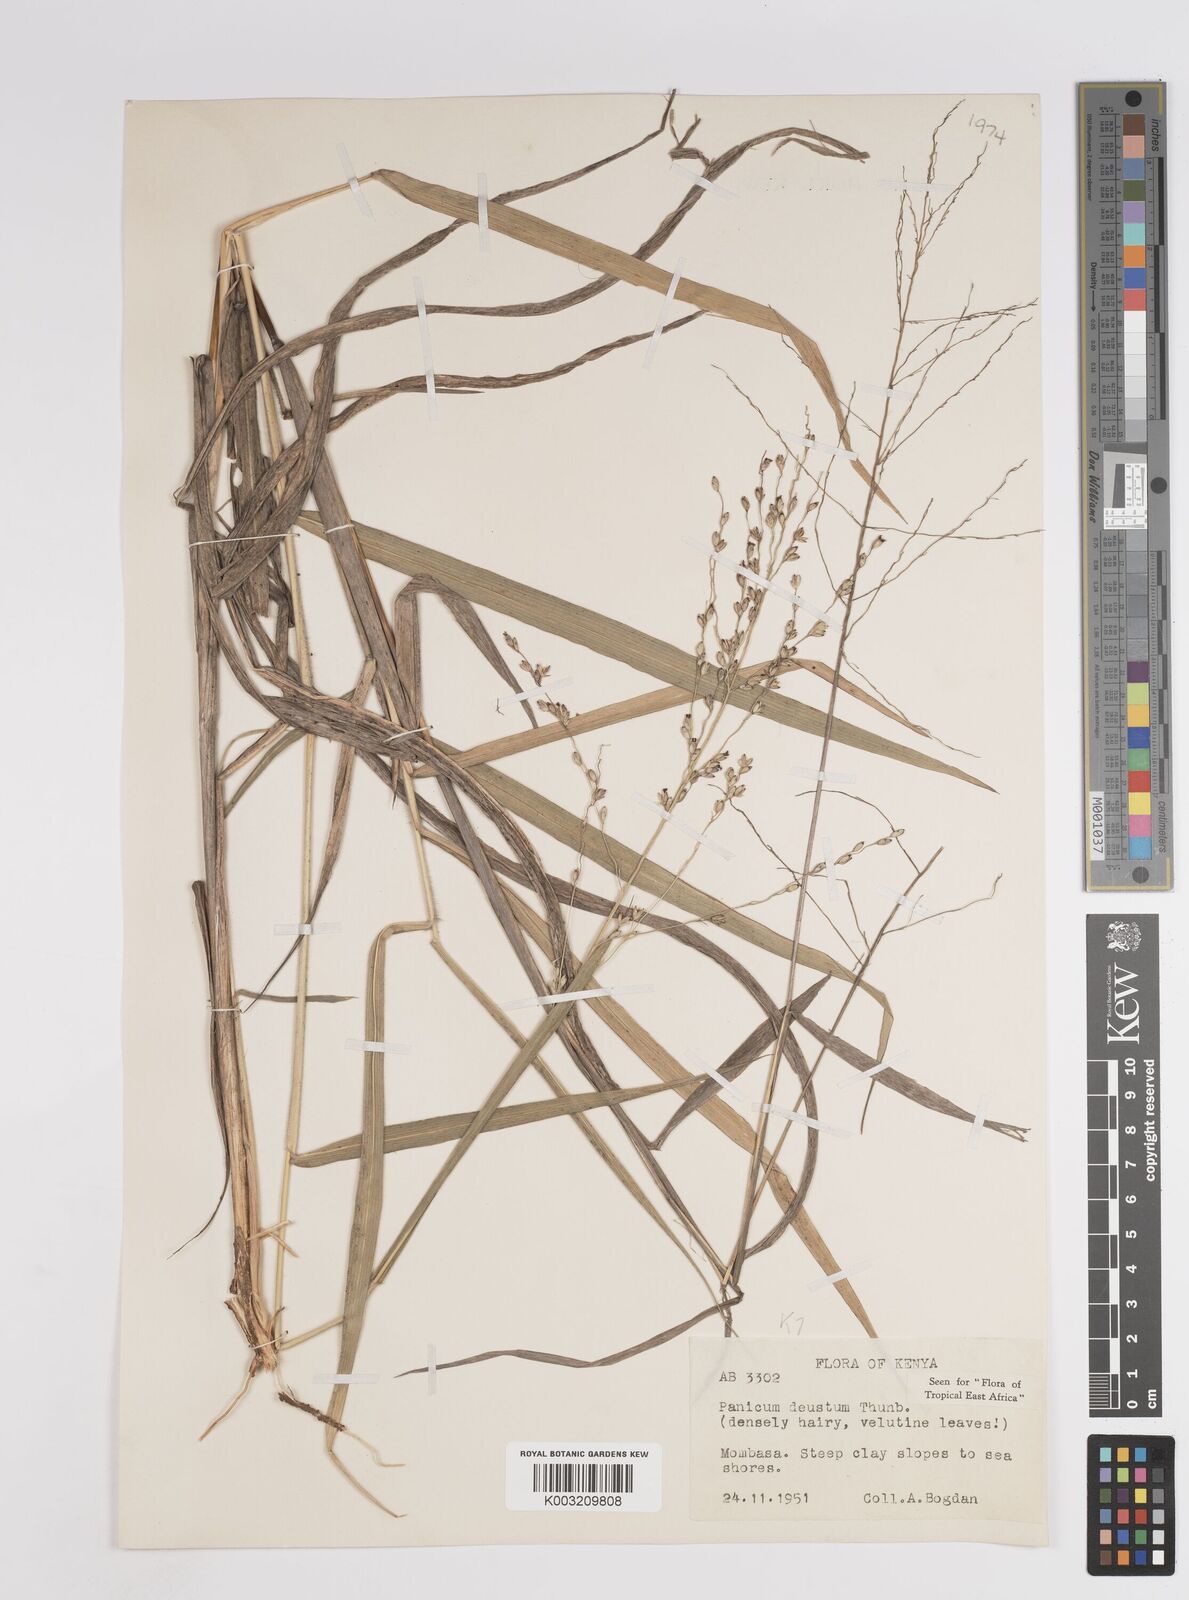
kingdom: Plantae
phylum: Tracheophyta
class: Liliopsida
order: Poales
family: Poaceae
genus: Panicum
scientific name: Panicum deustum
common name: Reed panicum
